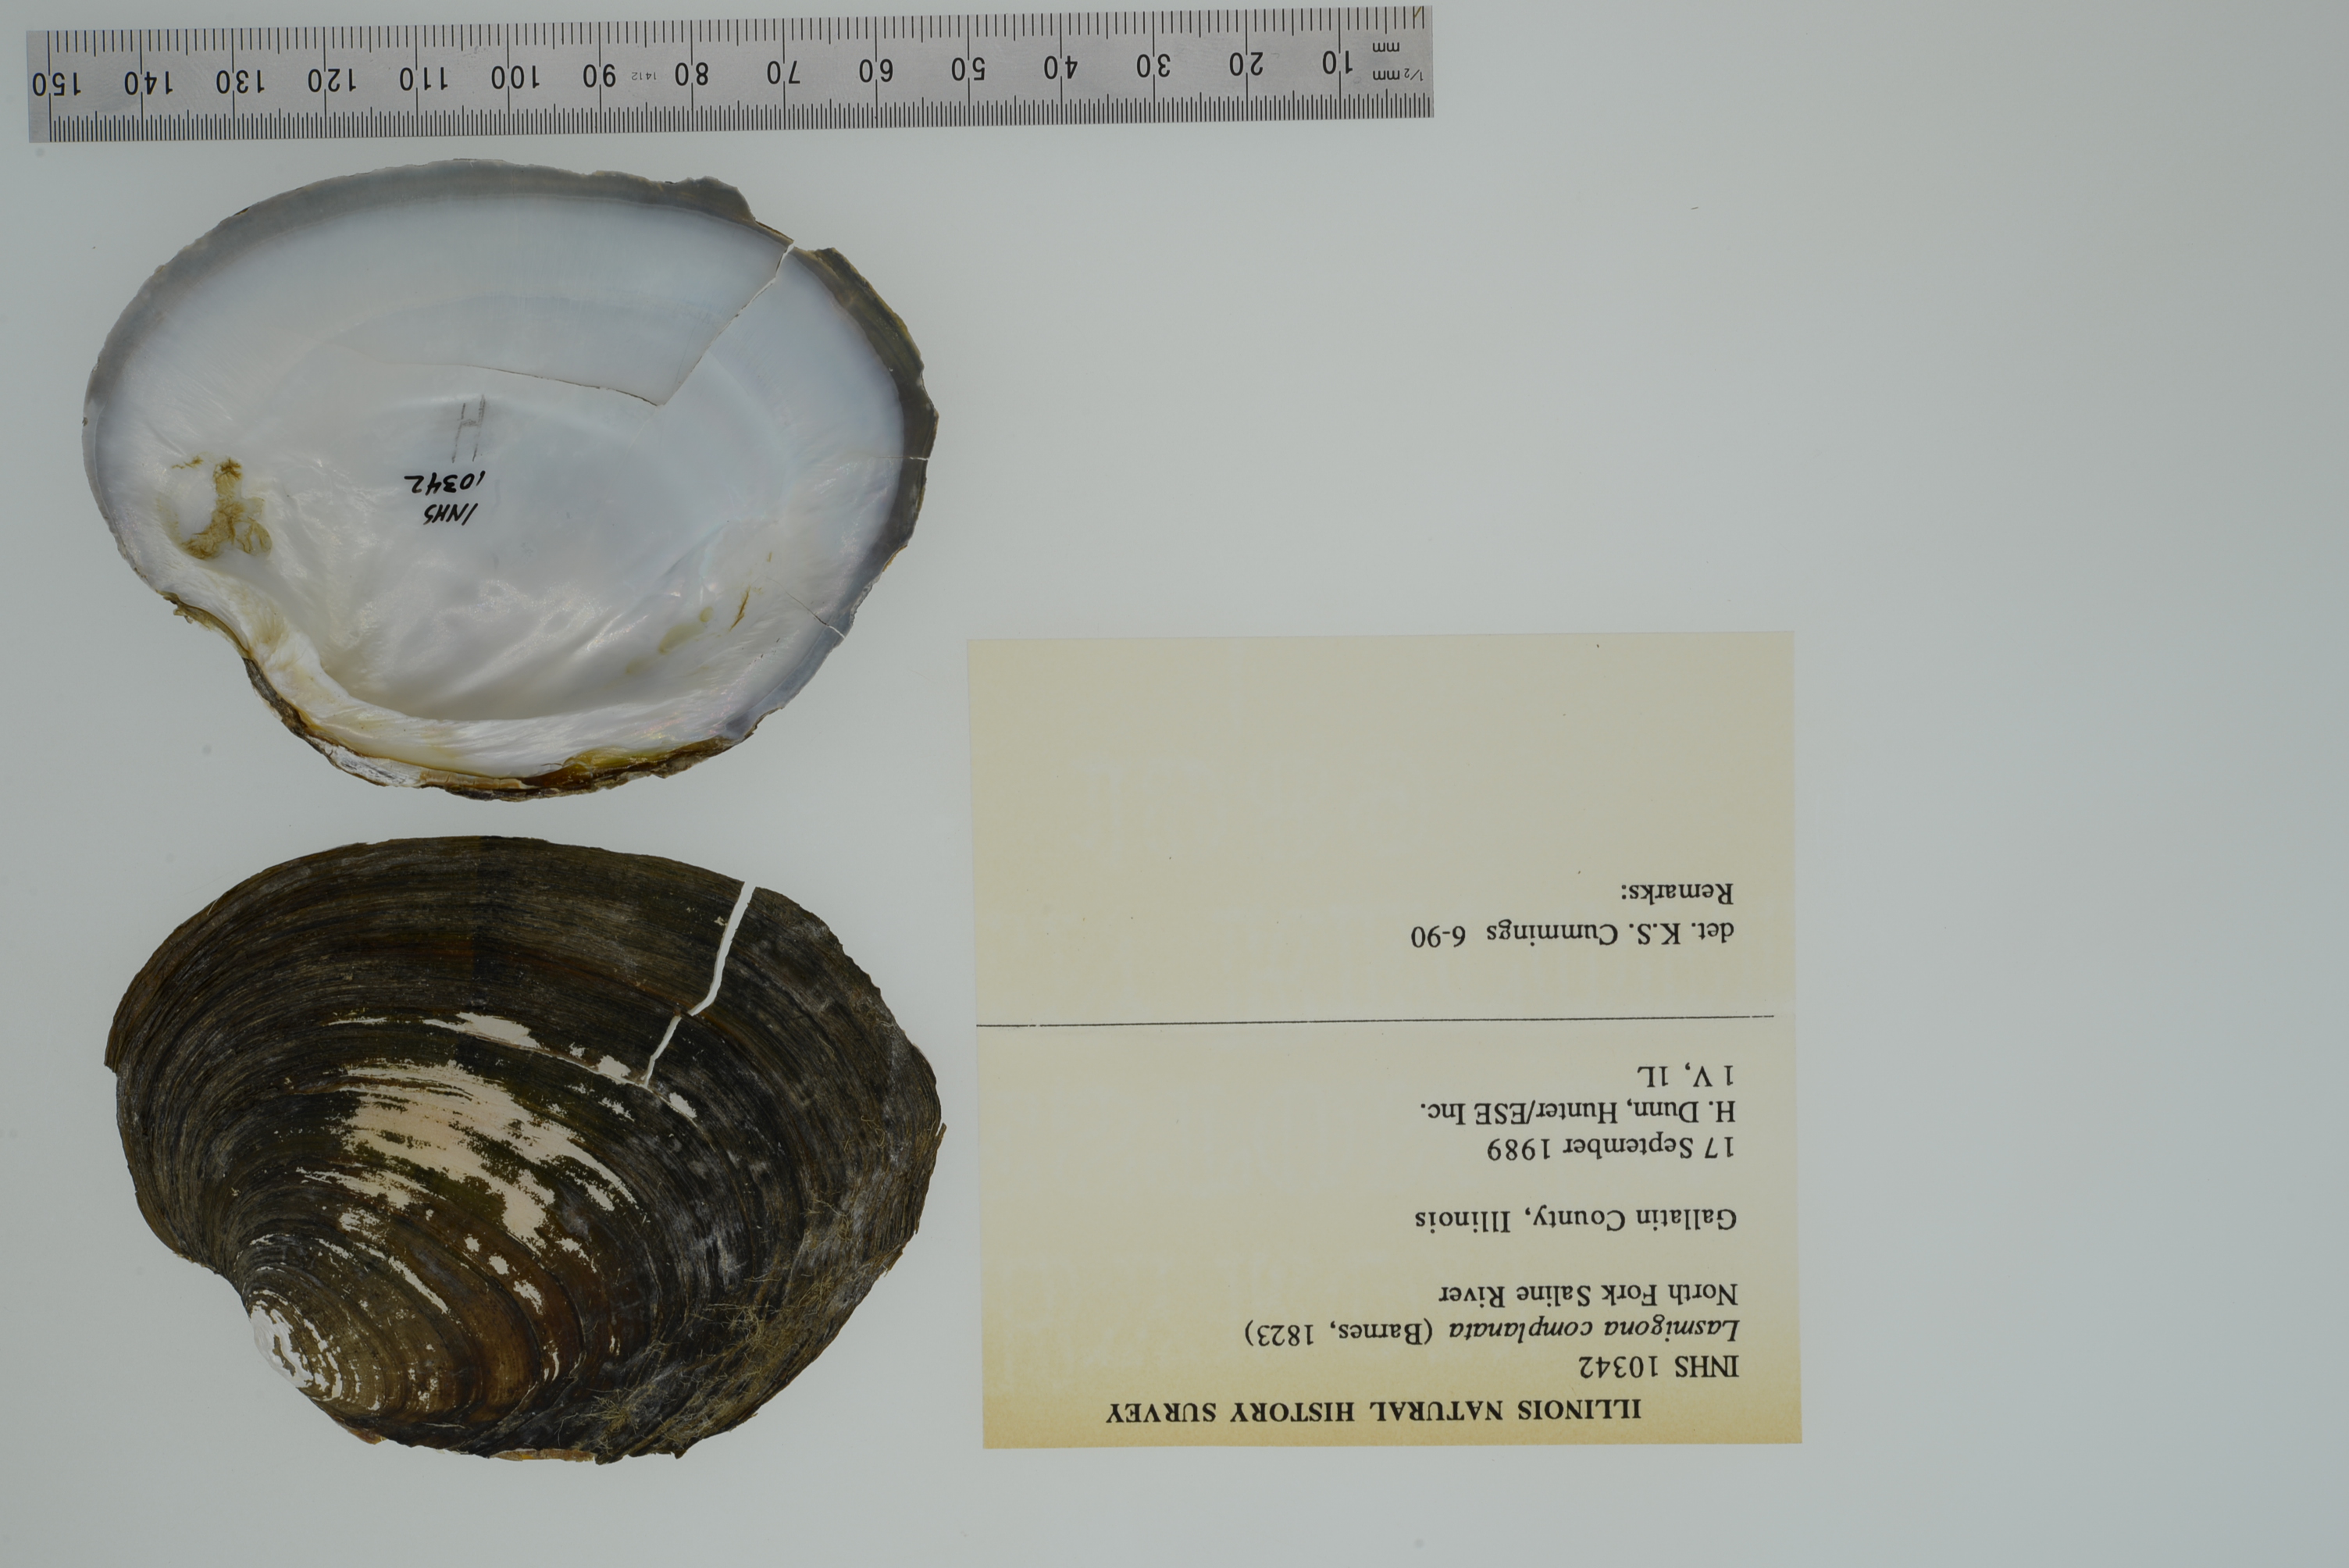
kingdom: Animalia
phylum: Mollusca
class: Bivalvia
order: Unionida
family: Unionidae
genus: Lasmigona
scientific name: Lasmigona complanata
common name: White heelsplitter
